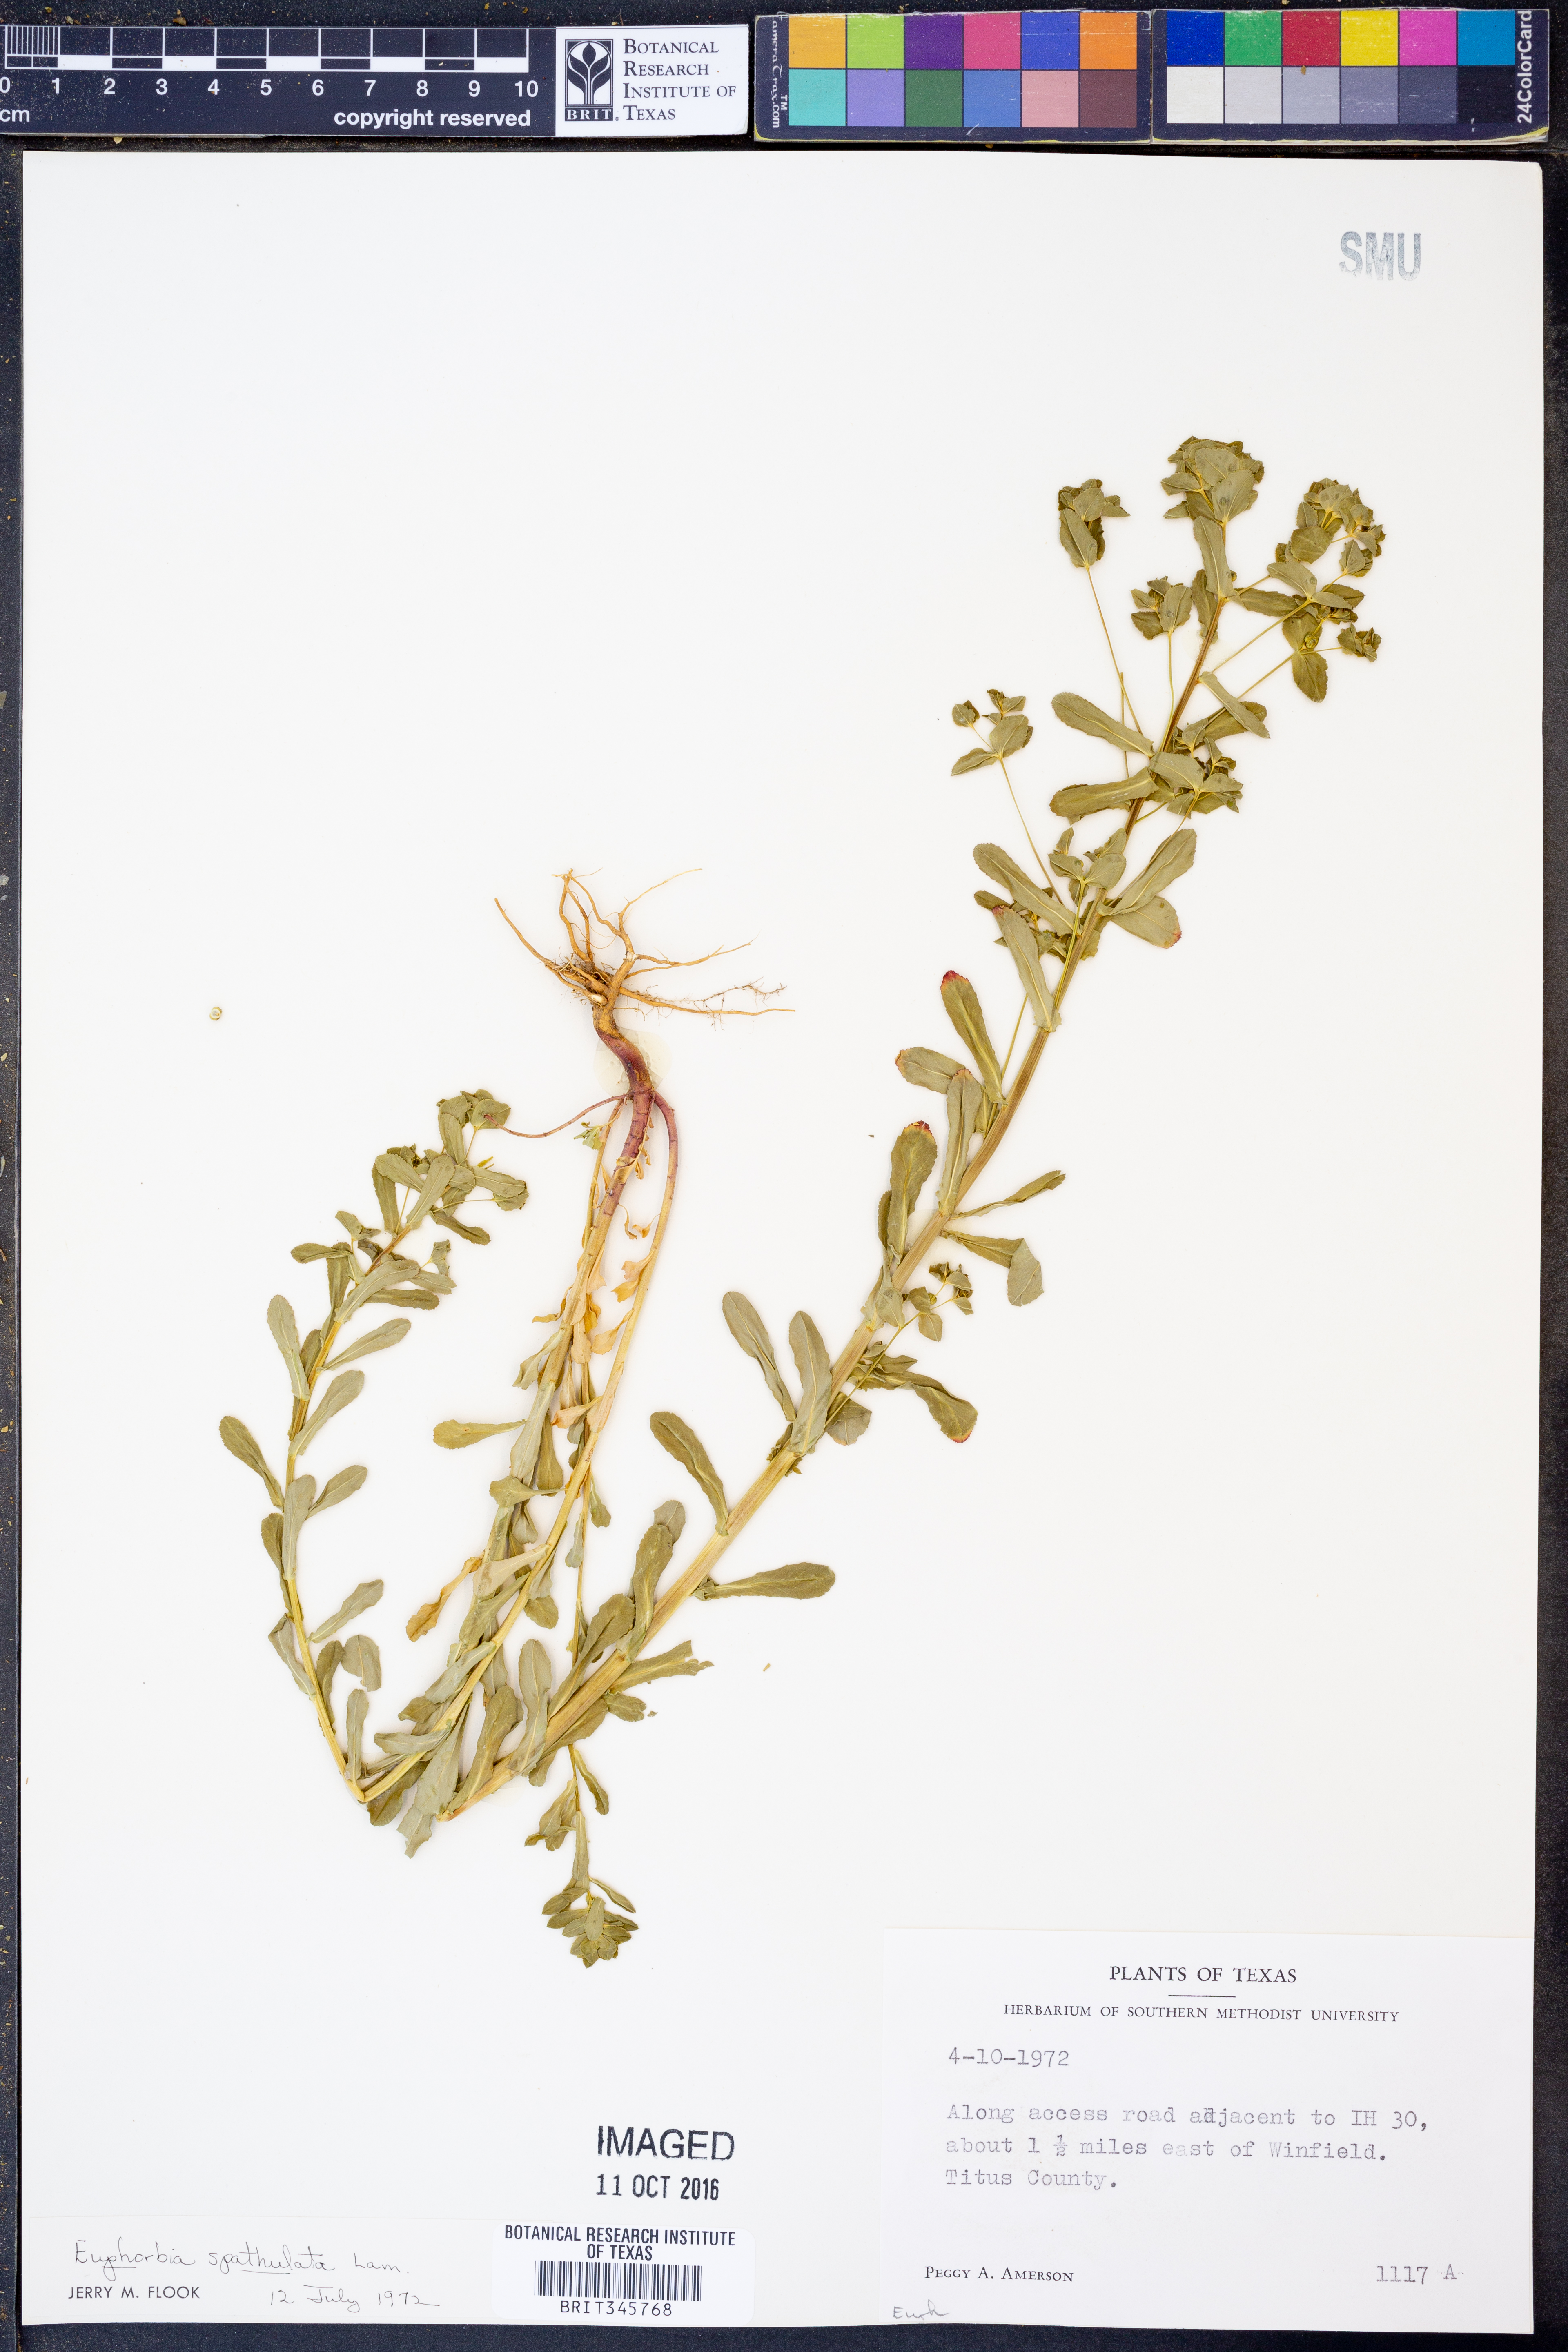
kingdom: Plantae
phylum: Tracheophyta
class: Magnoliopsida
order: Malpighiales
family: Euphorbiaceae
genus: Euphorbia
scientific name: Euphorbia spathulata
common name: Blunt spurge
